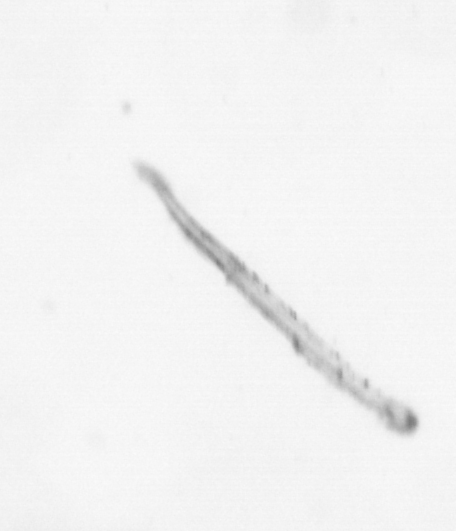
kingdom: Chromista
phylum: Ochrophyta
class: Bacillariophyceae
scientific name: Bacillariophyceae
